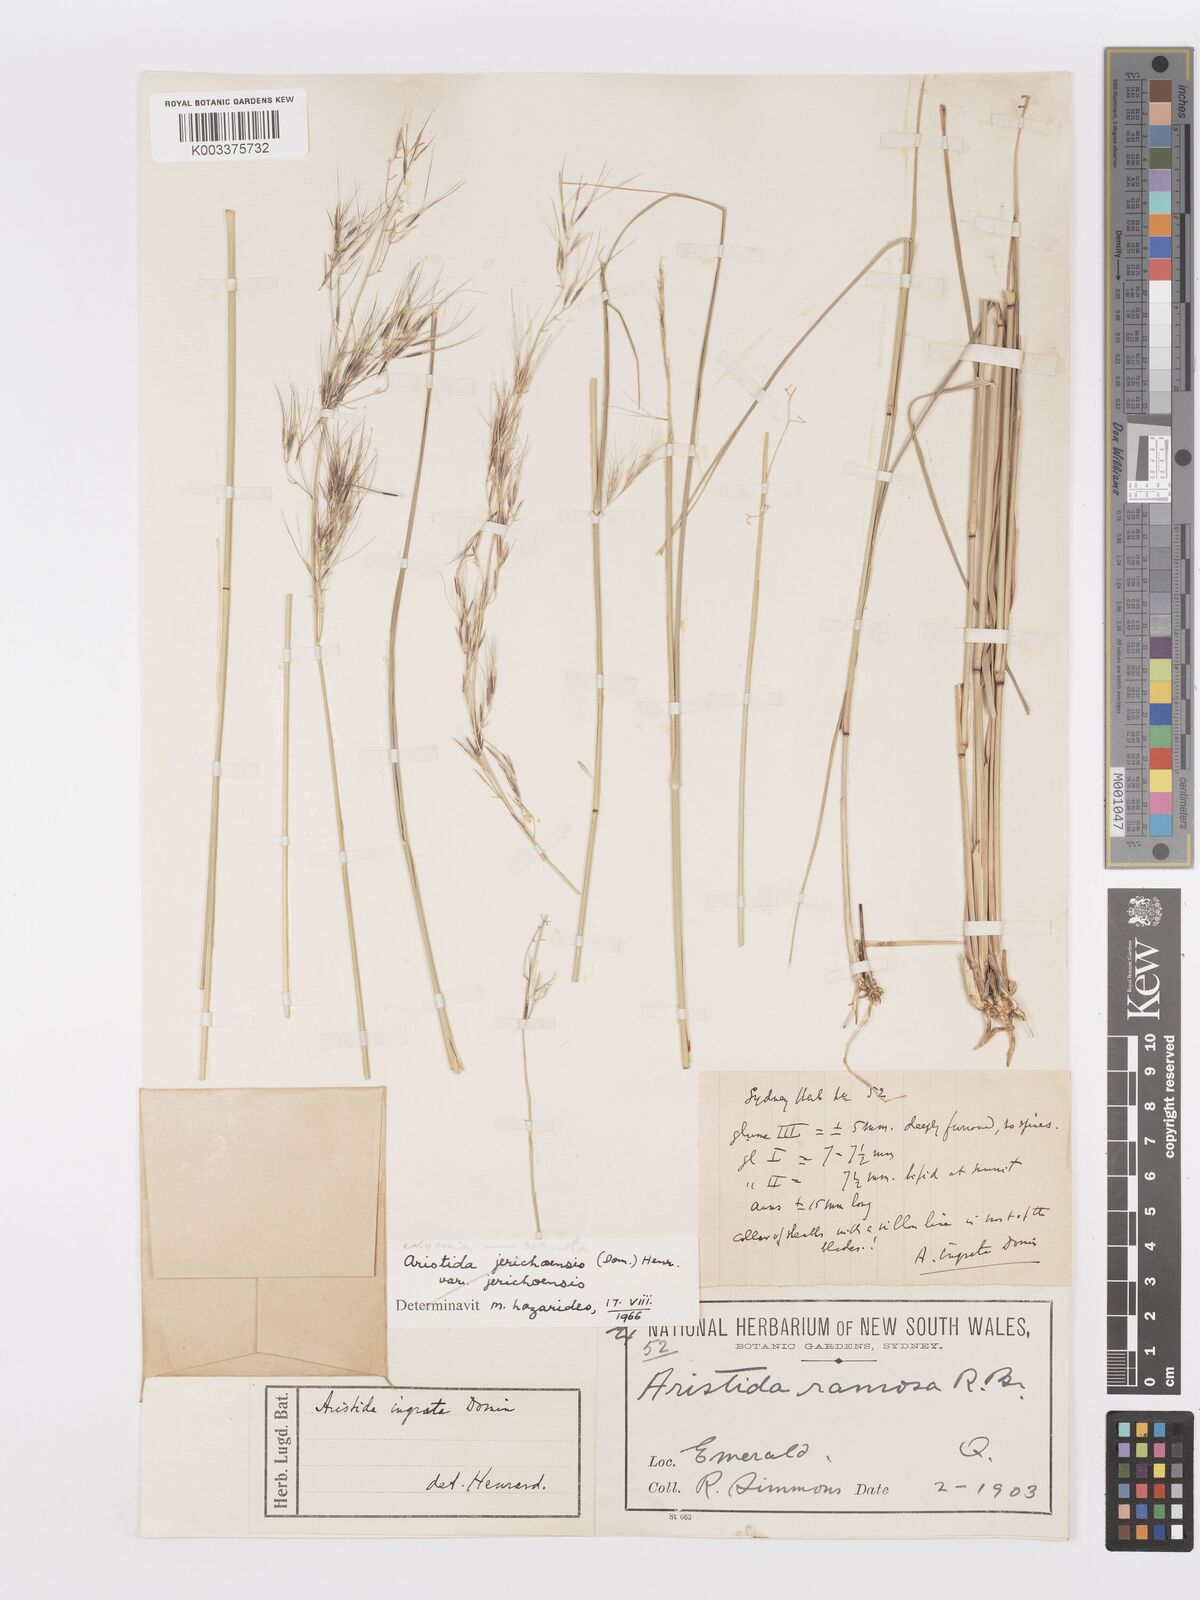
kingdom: Plantae
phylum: Tracheophyta
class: Liliopsida
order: Poales
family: Poaceae
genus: Aristida
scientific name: Aristida
